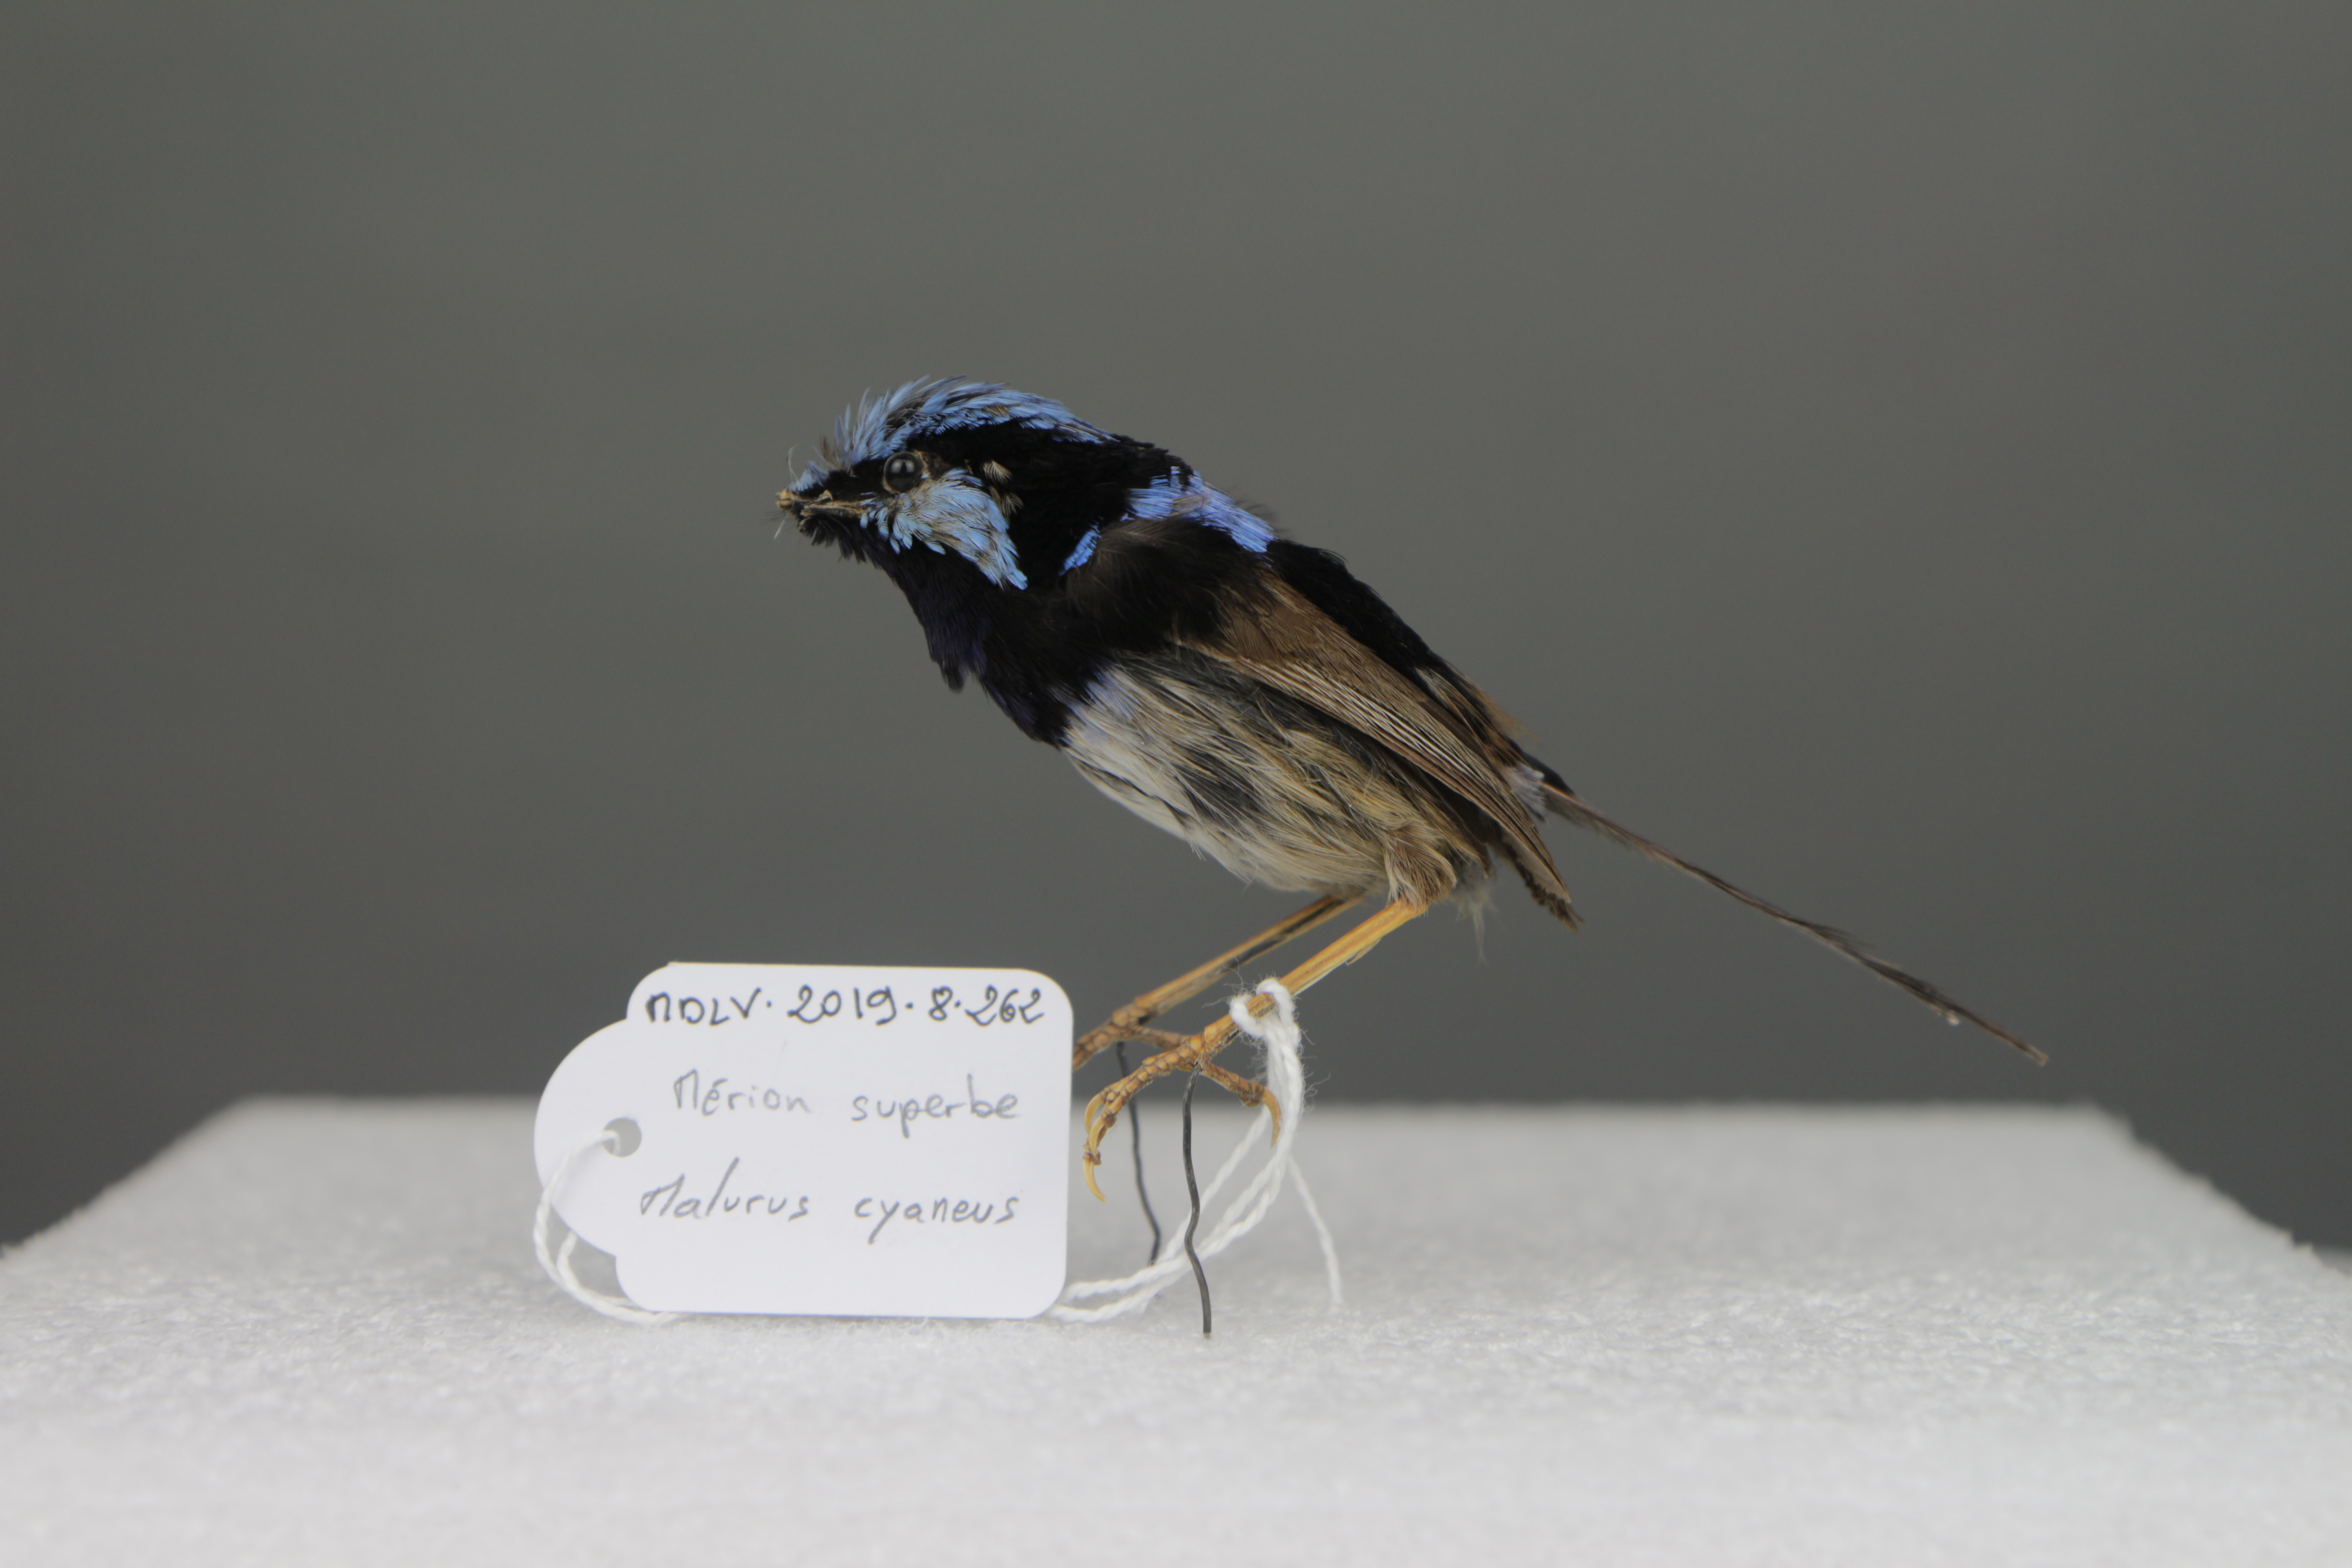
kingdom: Animalia
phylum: Chordata
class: Aves
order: Passeriformes
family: Maluridae
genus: Malurus
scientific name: Malurus cyaneus
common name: Superb fairywren
